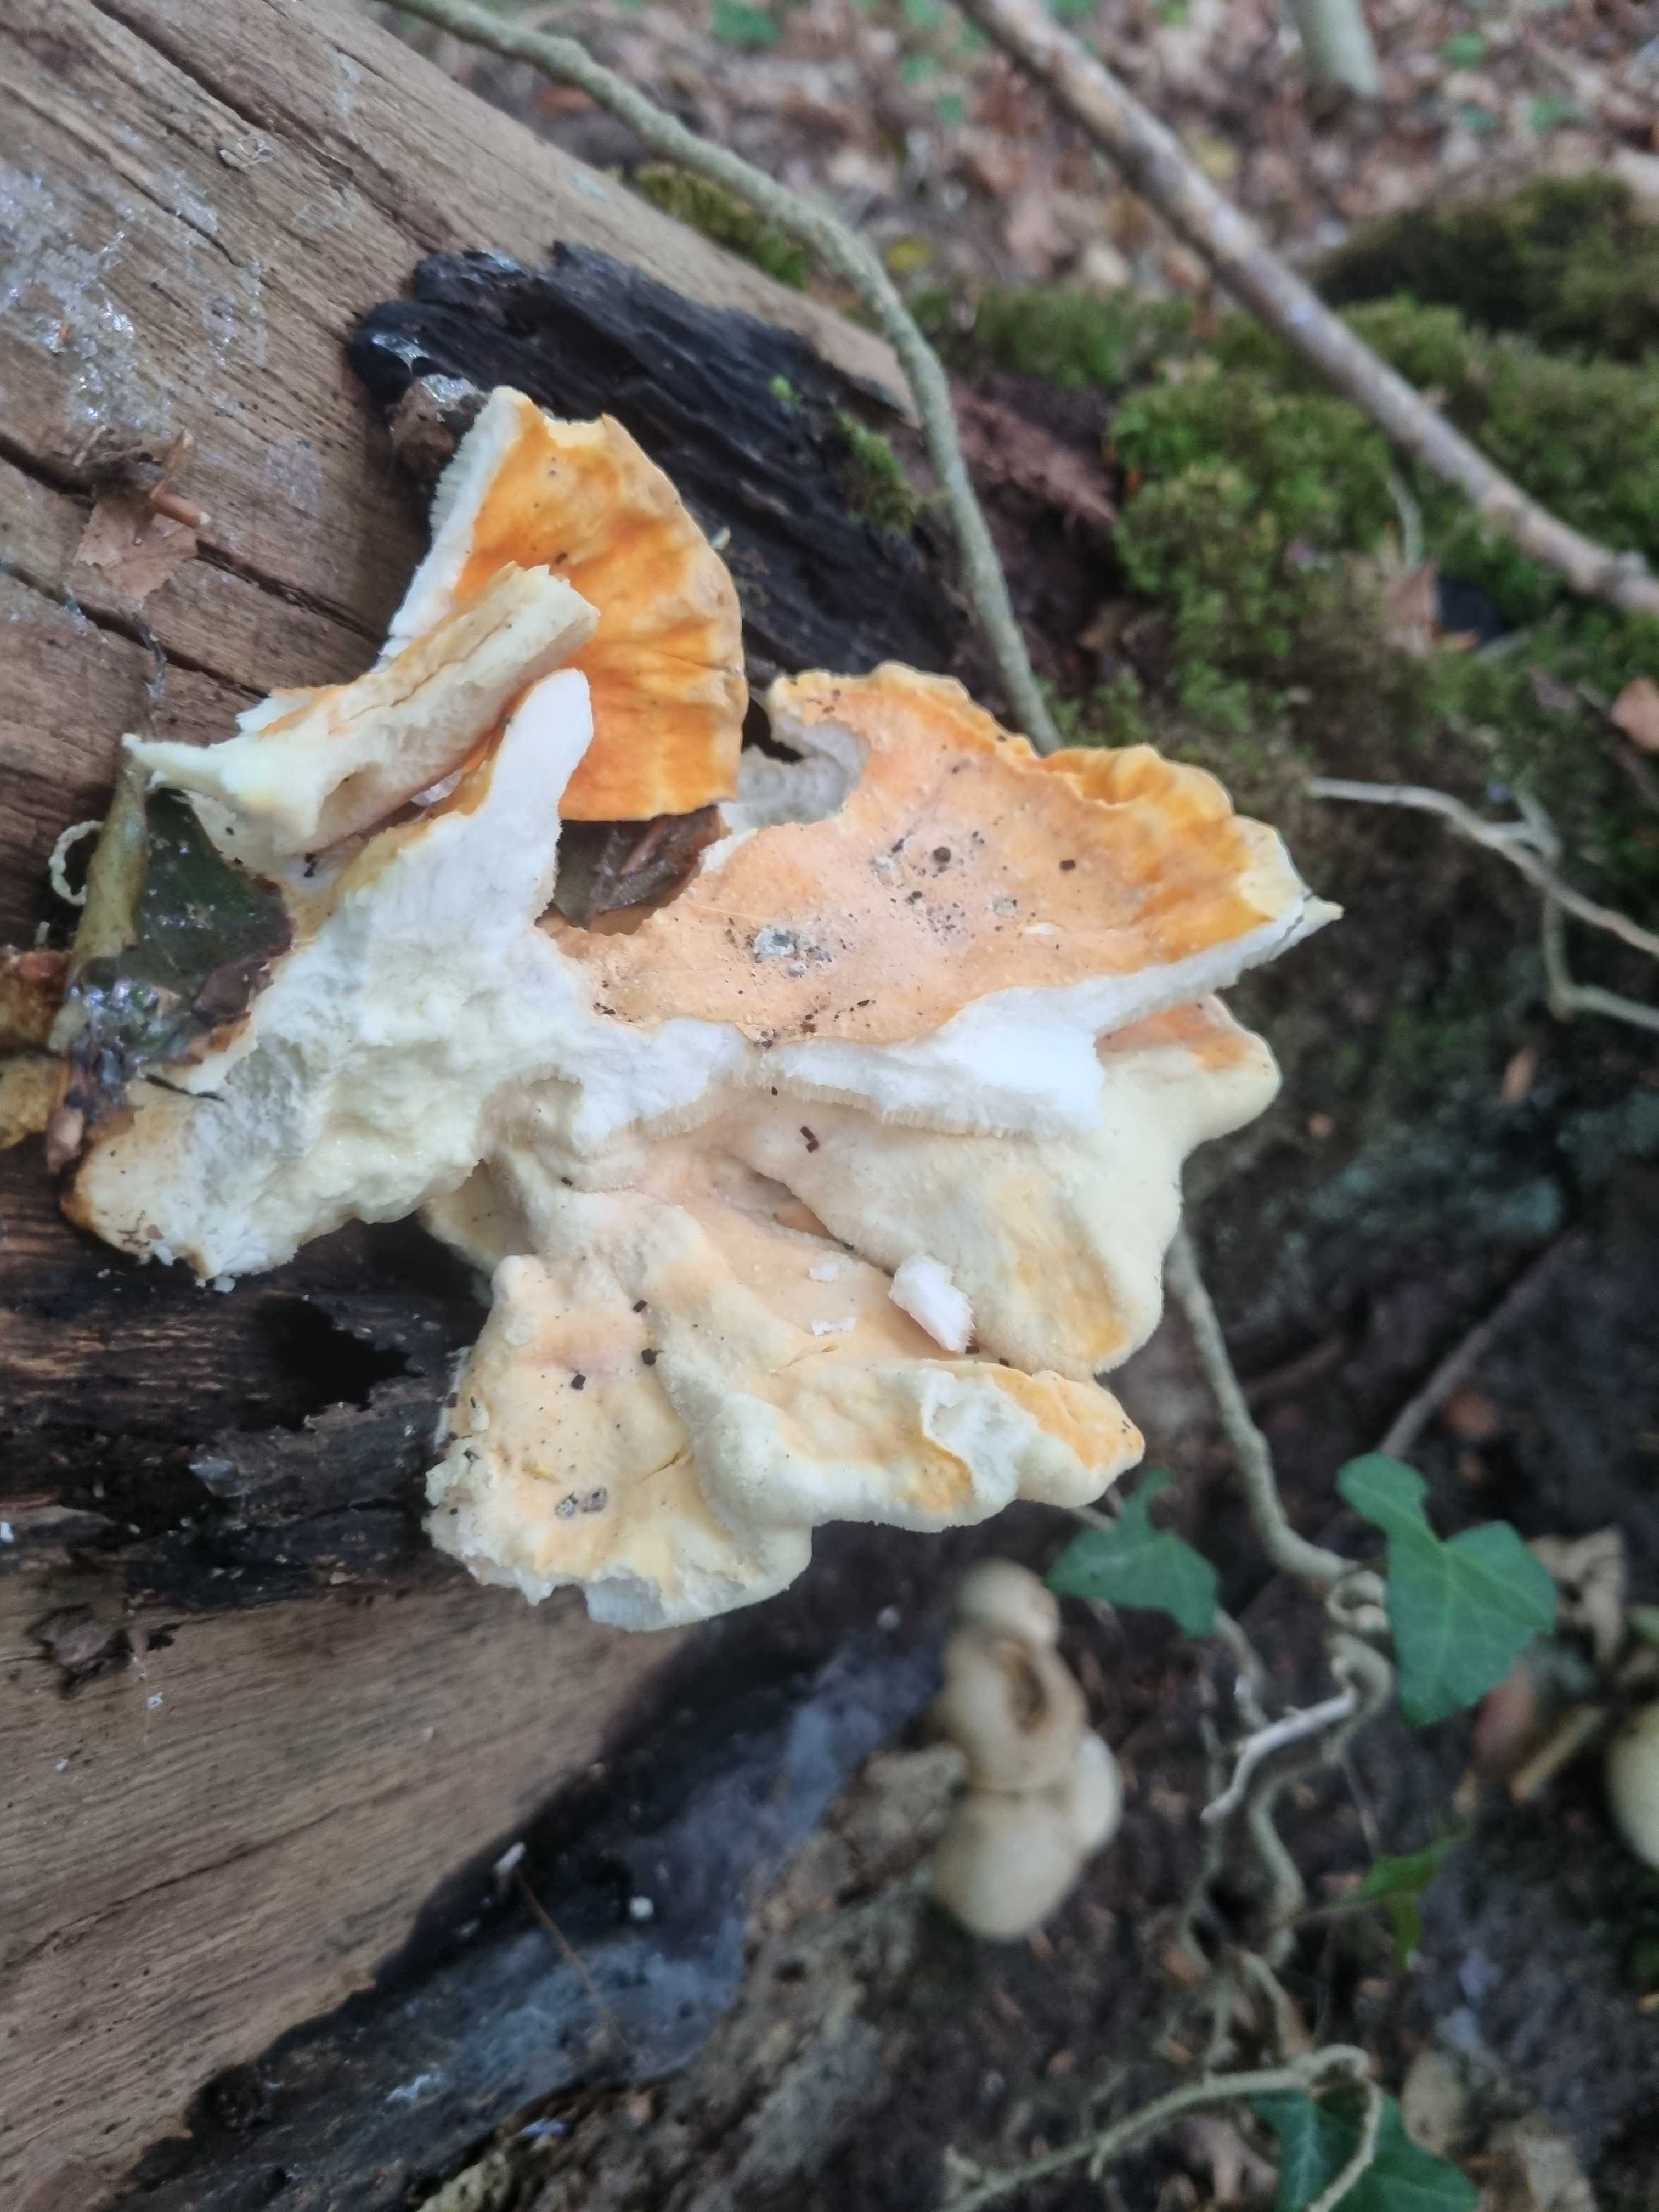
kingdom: Fungi
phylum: Basidiomycota
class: Agaricomycetes
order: Polyporales
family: Laetiporaceae
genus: Laetiporus
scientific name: Laetiporus sulphureus
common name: svovlporesvamp
